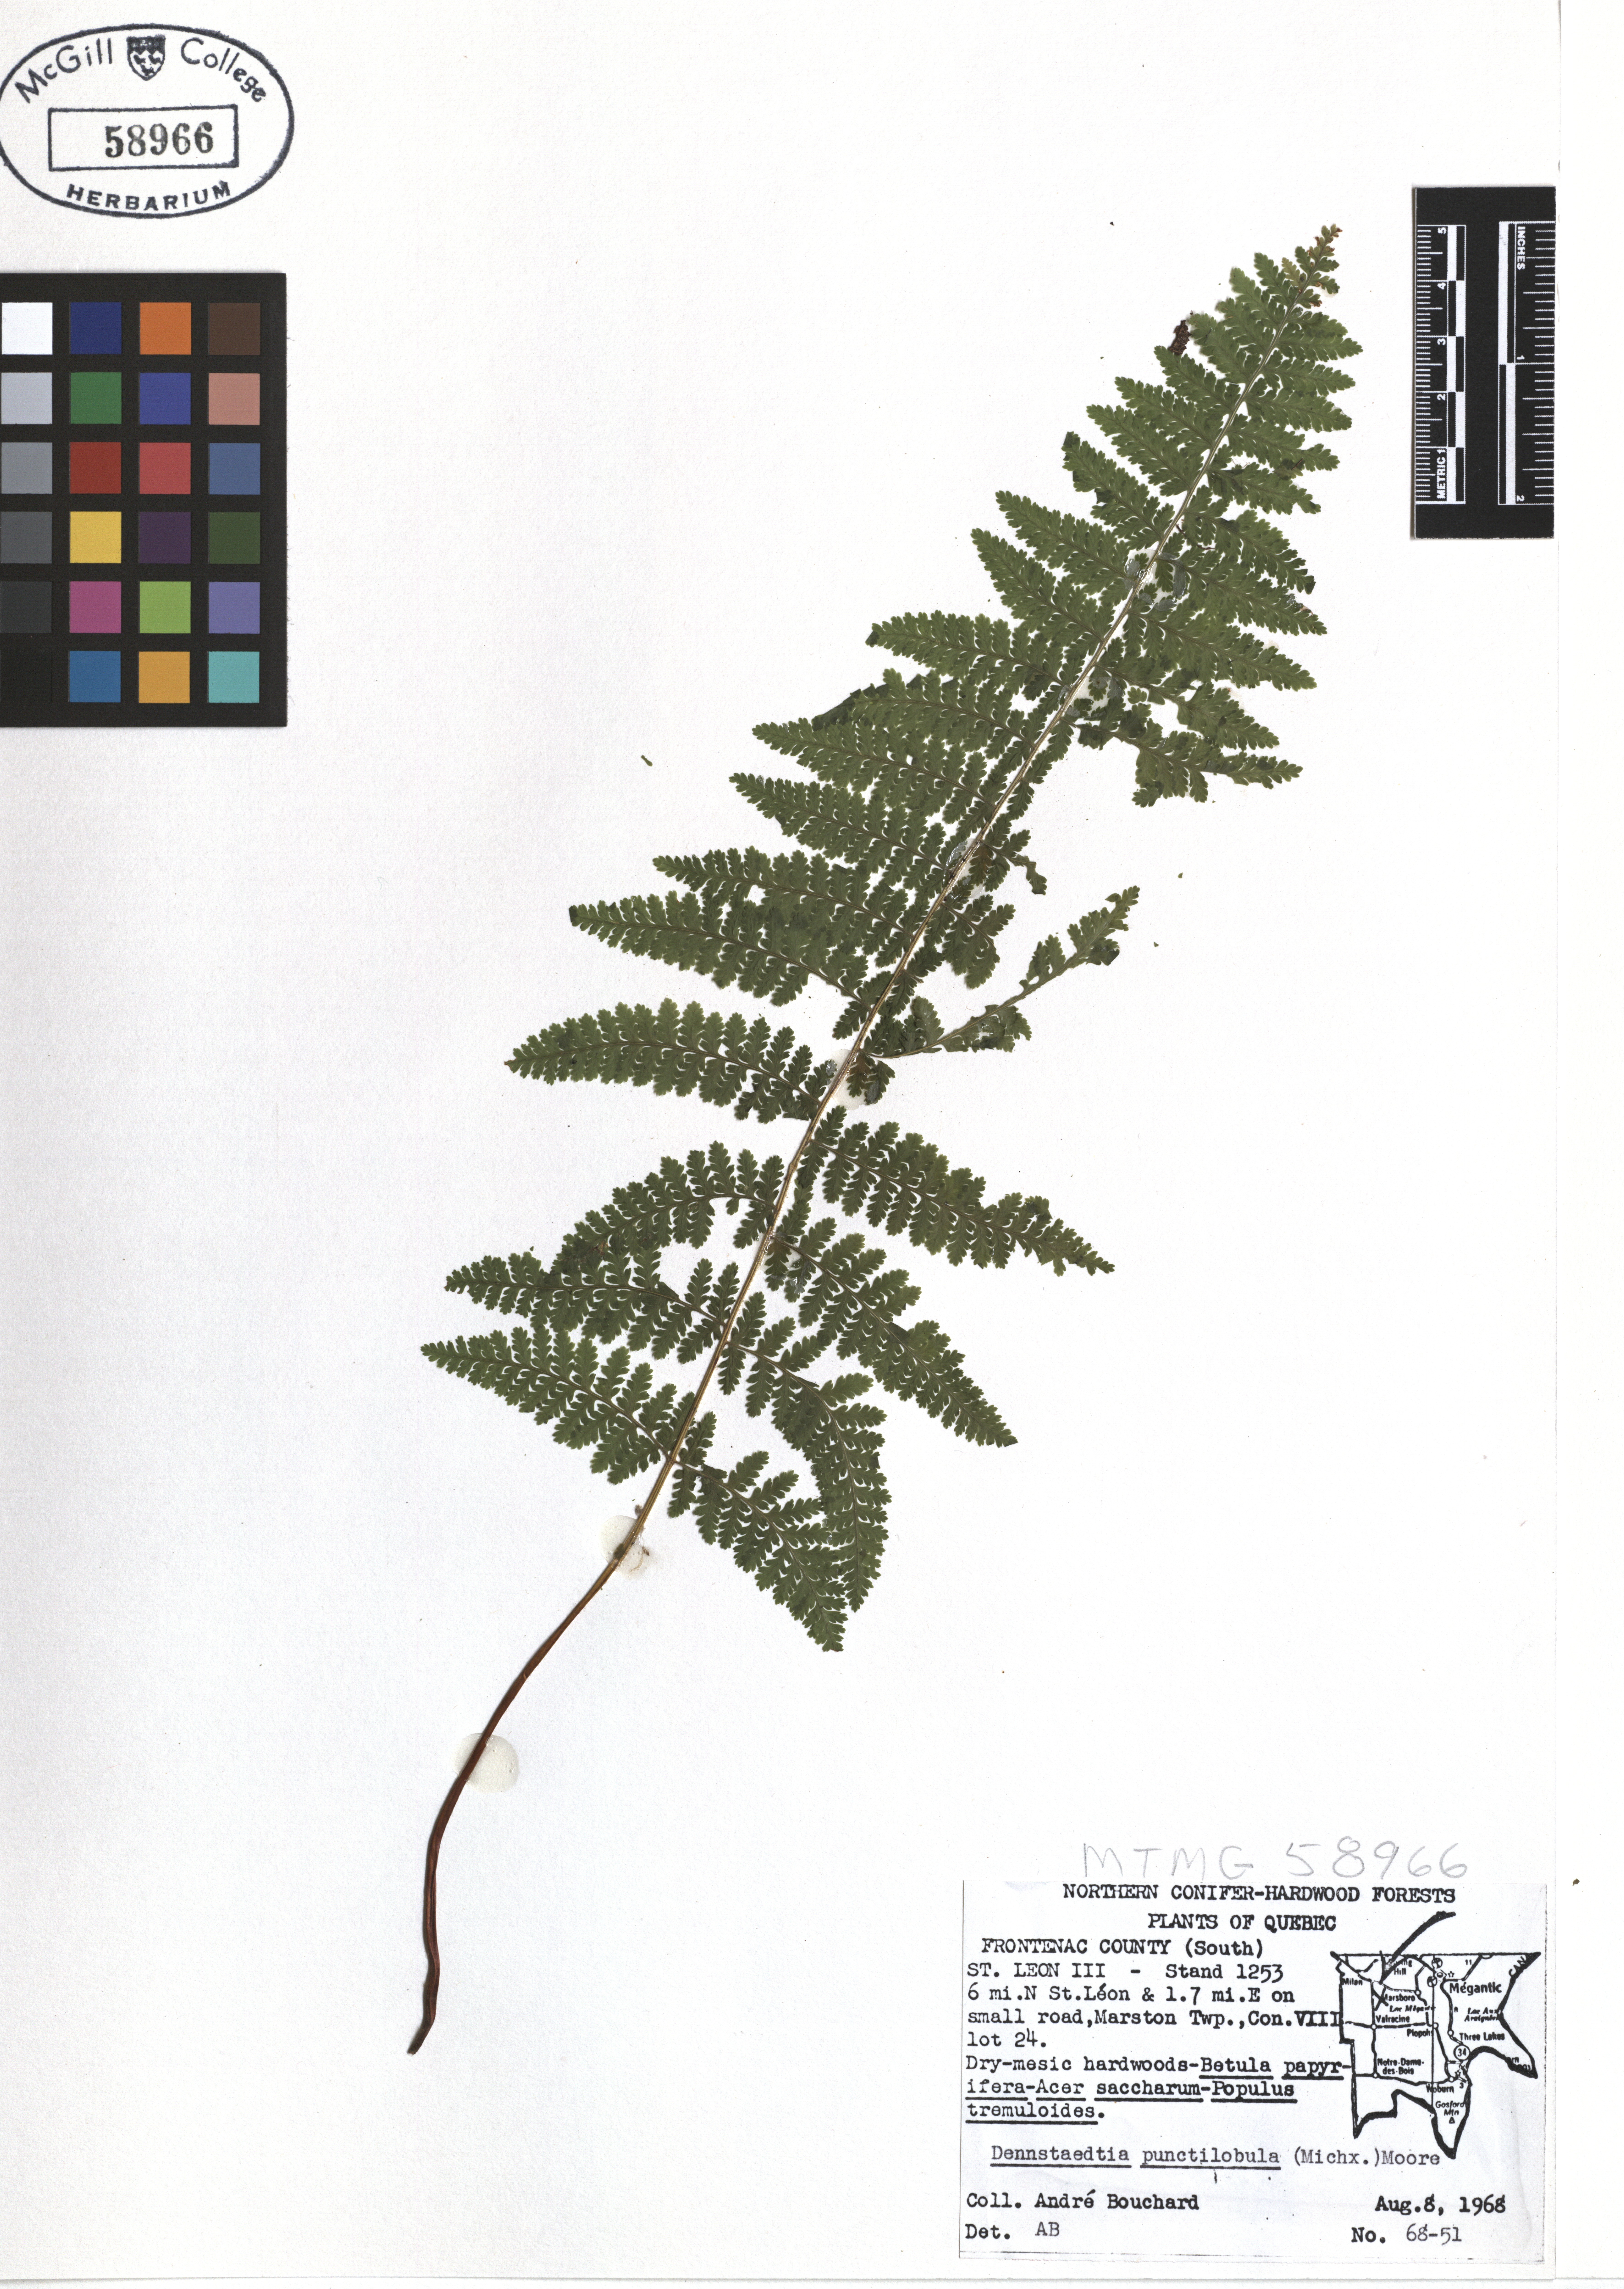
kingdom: Plantae
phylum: Tracheophyta
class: Polypodiopsida
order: Polypodiales
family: Dennstaedtiaceae
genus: Sitobolium
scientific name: Sitobolium punctilobum
